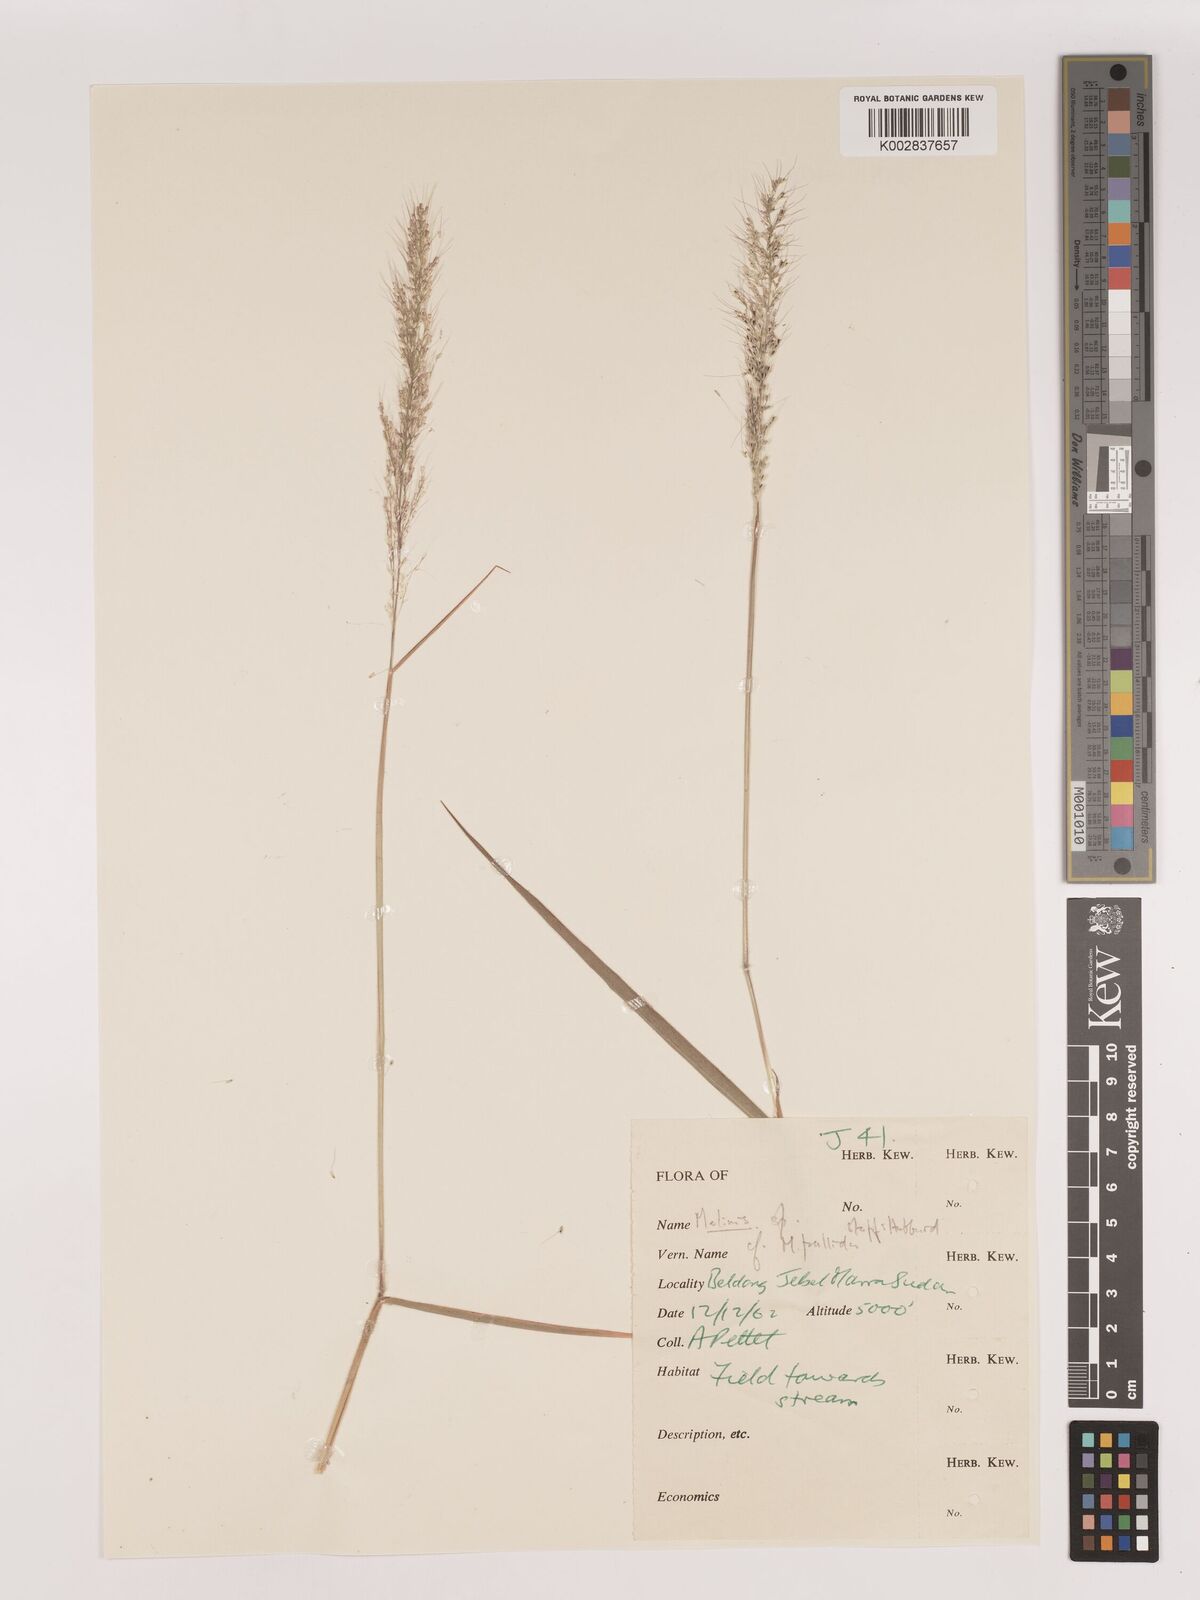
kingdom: Plantae
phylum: Tracheophyta
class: Liliopsida
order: Poales
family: Poaceae
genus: Melinis
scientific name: Melinis minutiflora
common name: Molassesgrass
